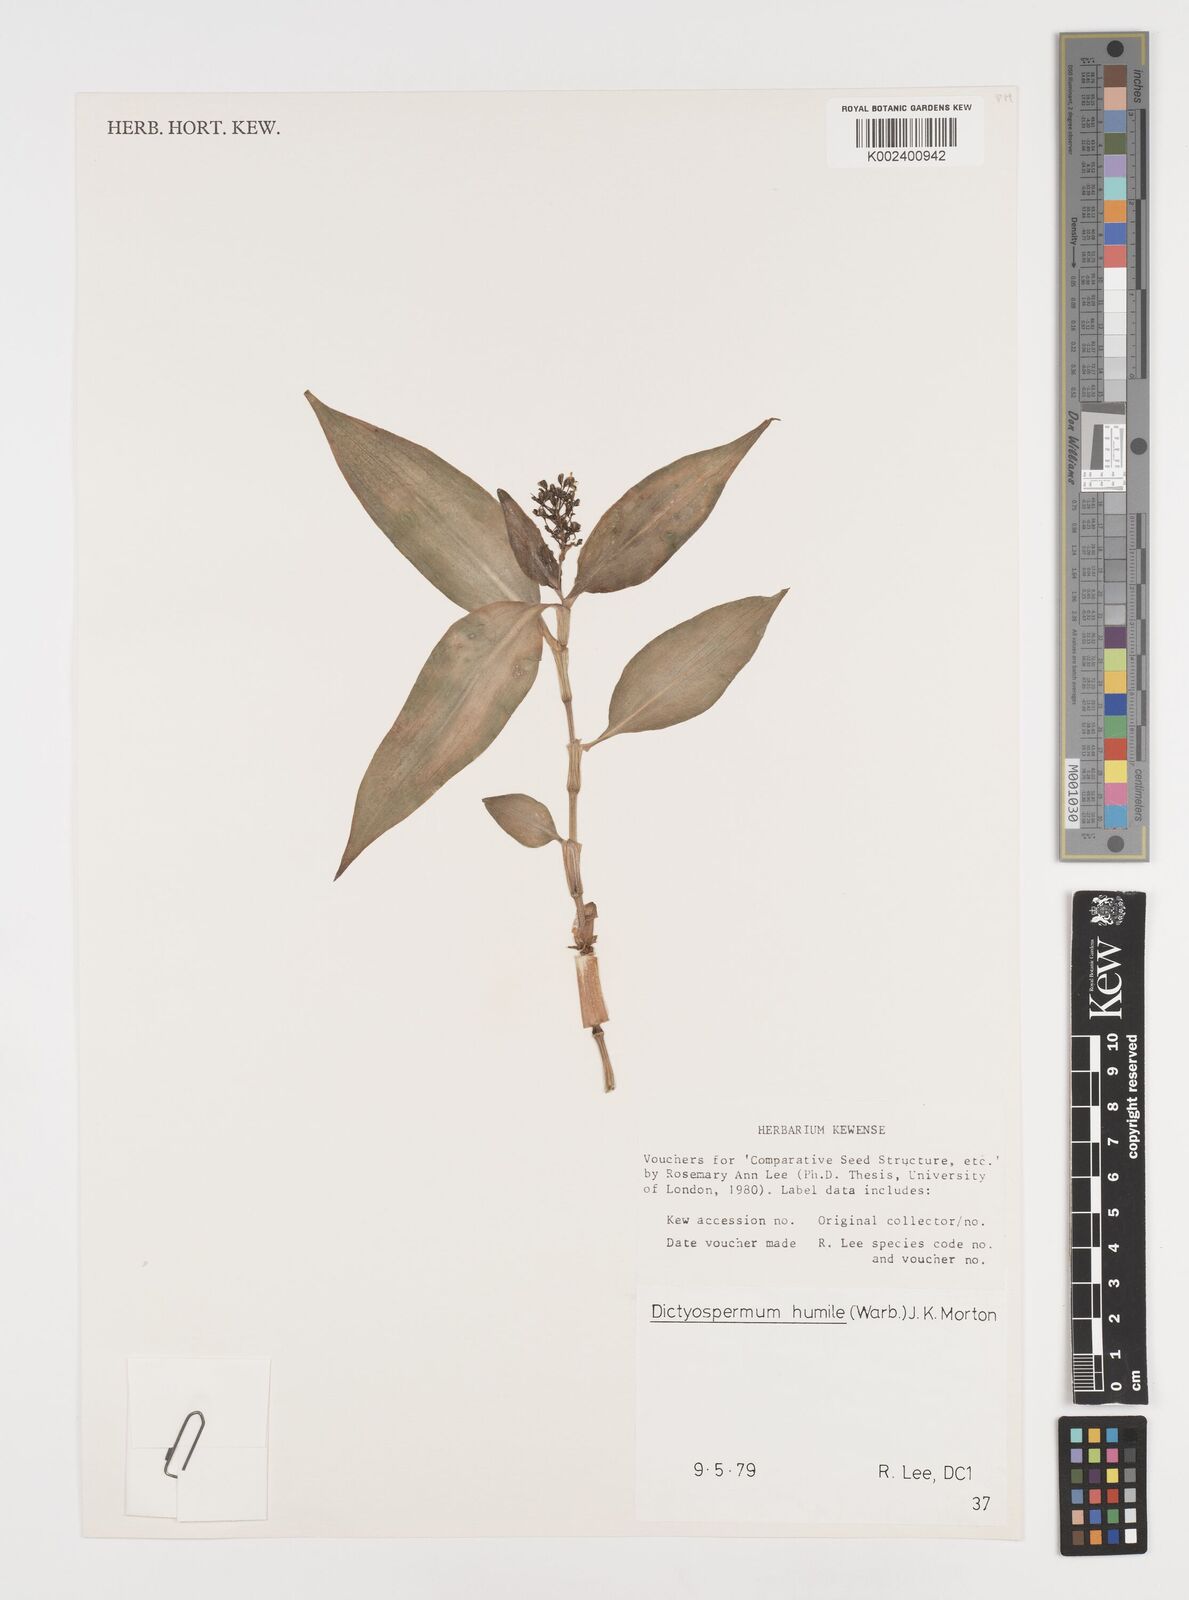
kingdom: Plantae
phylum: Tracheophyta
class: Liliopsida
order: Commelinales
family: Commelinaceae
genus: Dictyospermum
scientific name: Dictyospermum humile
